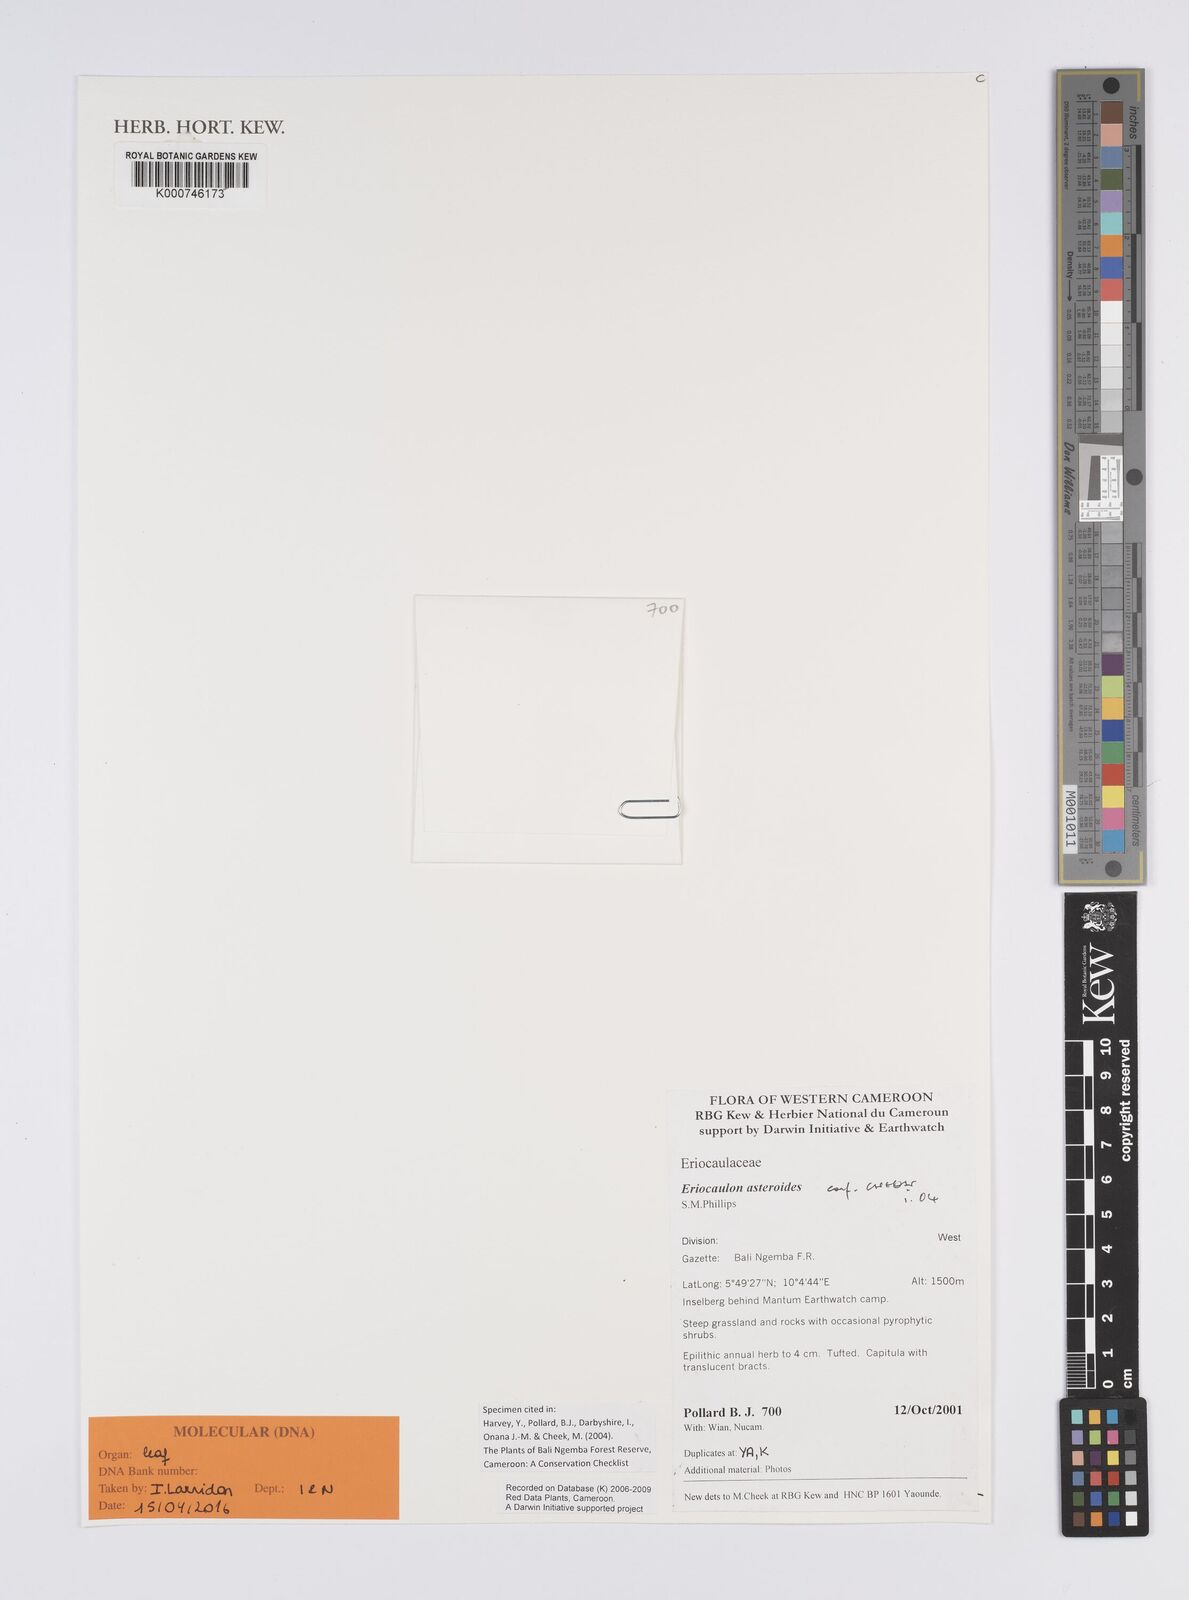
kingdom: Plantae
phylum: Tracheophyta
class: Liliopsida
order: Poales
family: Eriocaulaceae
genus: Eriocaulon
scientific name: Eriocaulon asteroides
